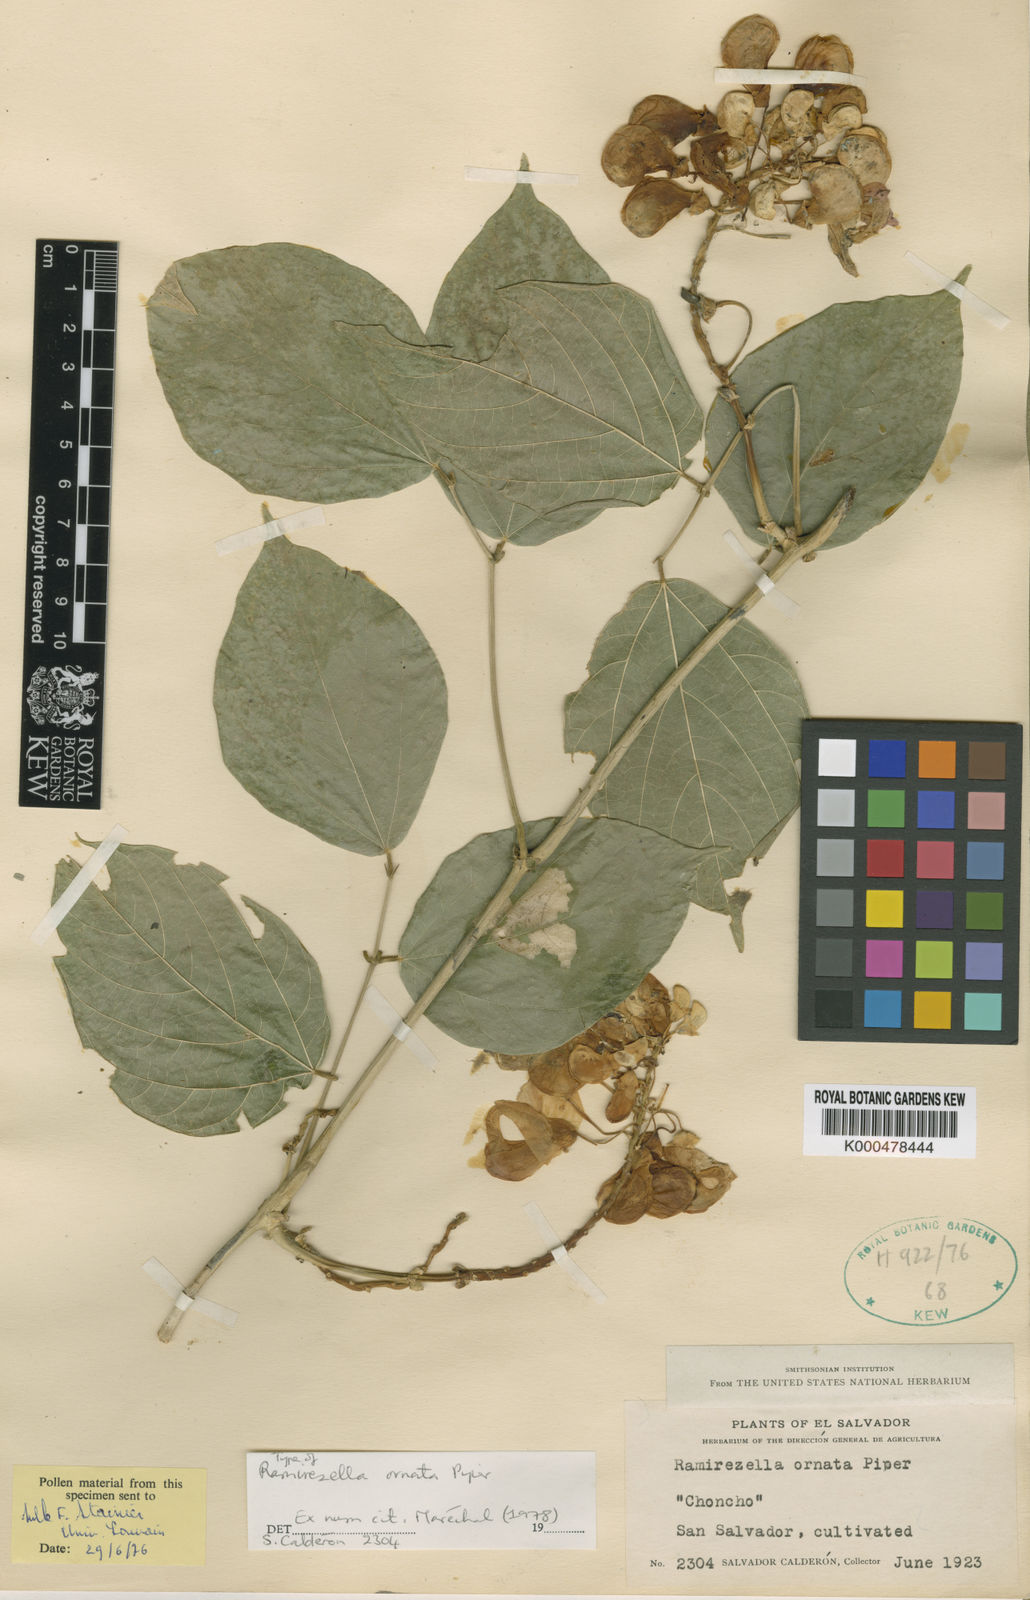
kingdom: Plantae
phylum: Tracheophyta
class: Magnoliopsida
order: Fabales
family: Fabaceae
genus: Ramirezella
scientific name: Ramirezella strobilophora
